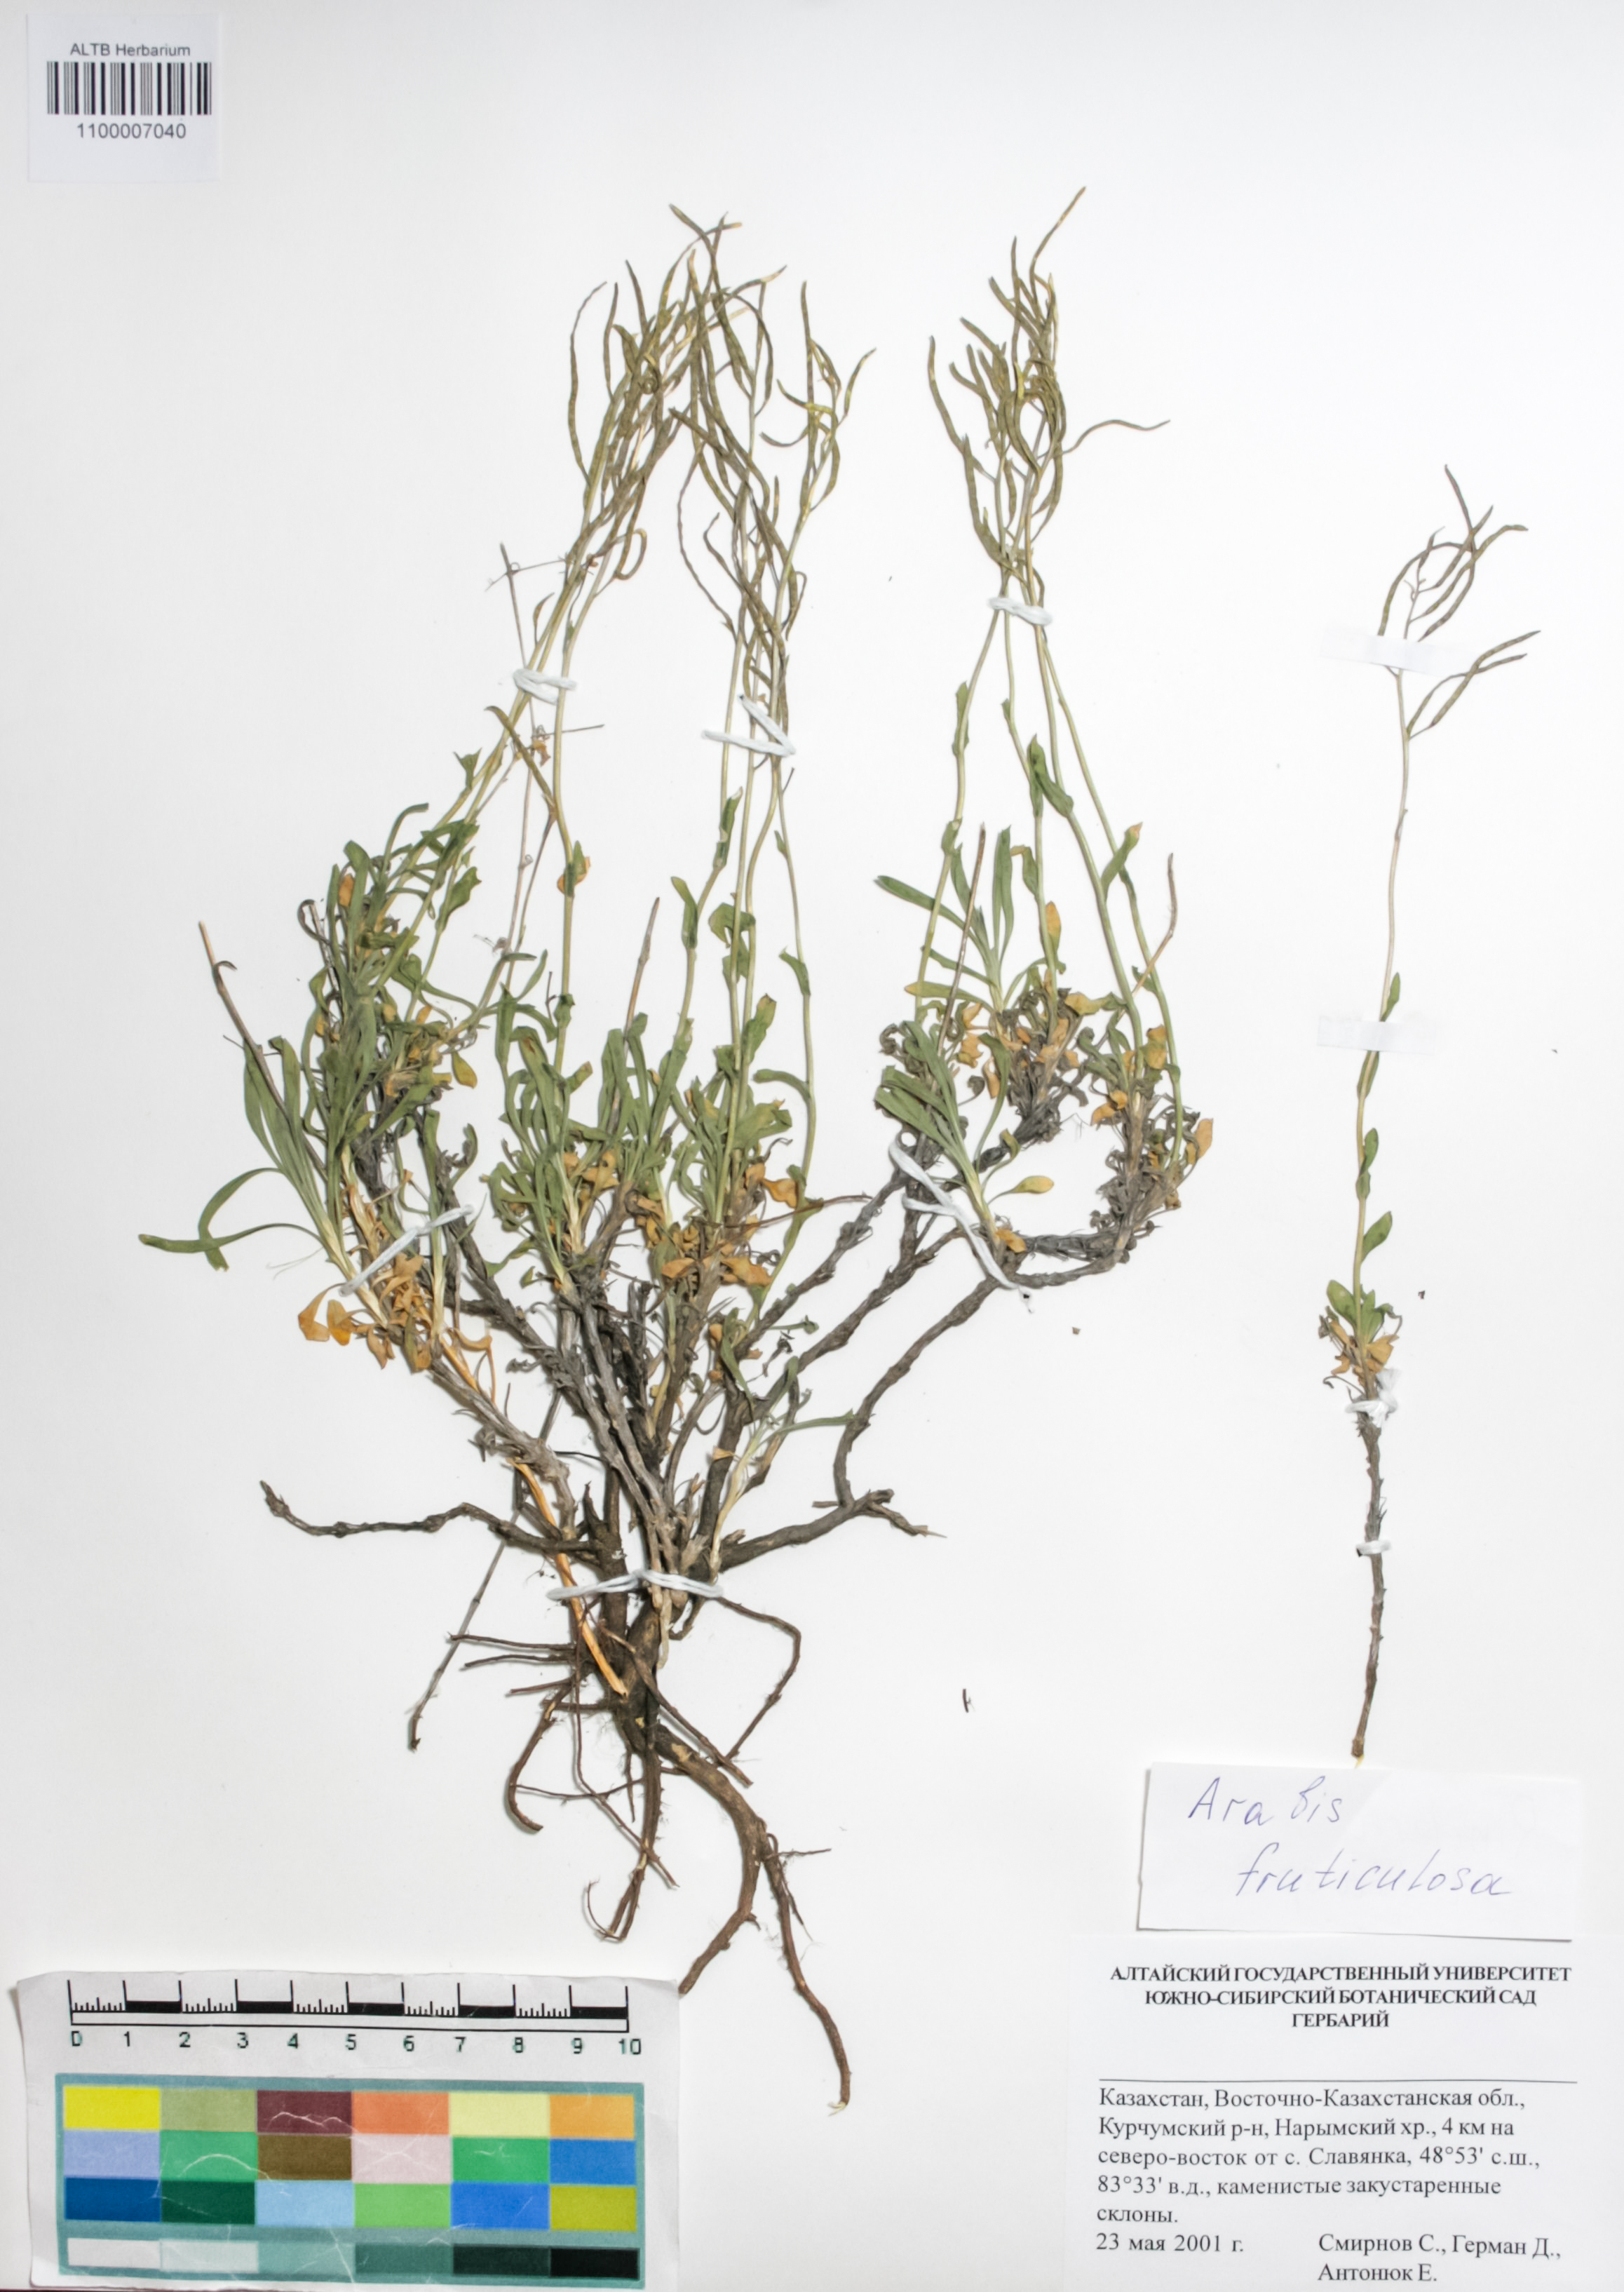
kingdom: Plantae
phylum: Tracheophyta
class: Magnoliopsida
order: Brassicales
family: Brassicaceae
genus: Dendroarabis
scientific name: Dendroarabis fruticulosa
